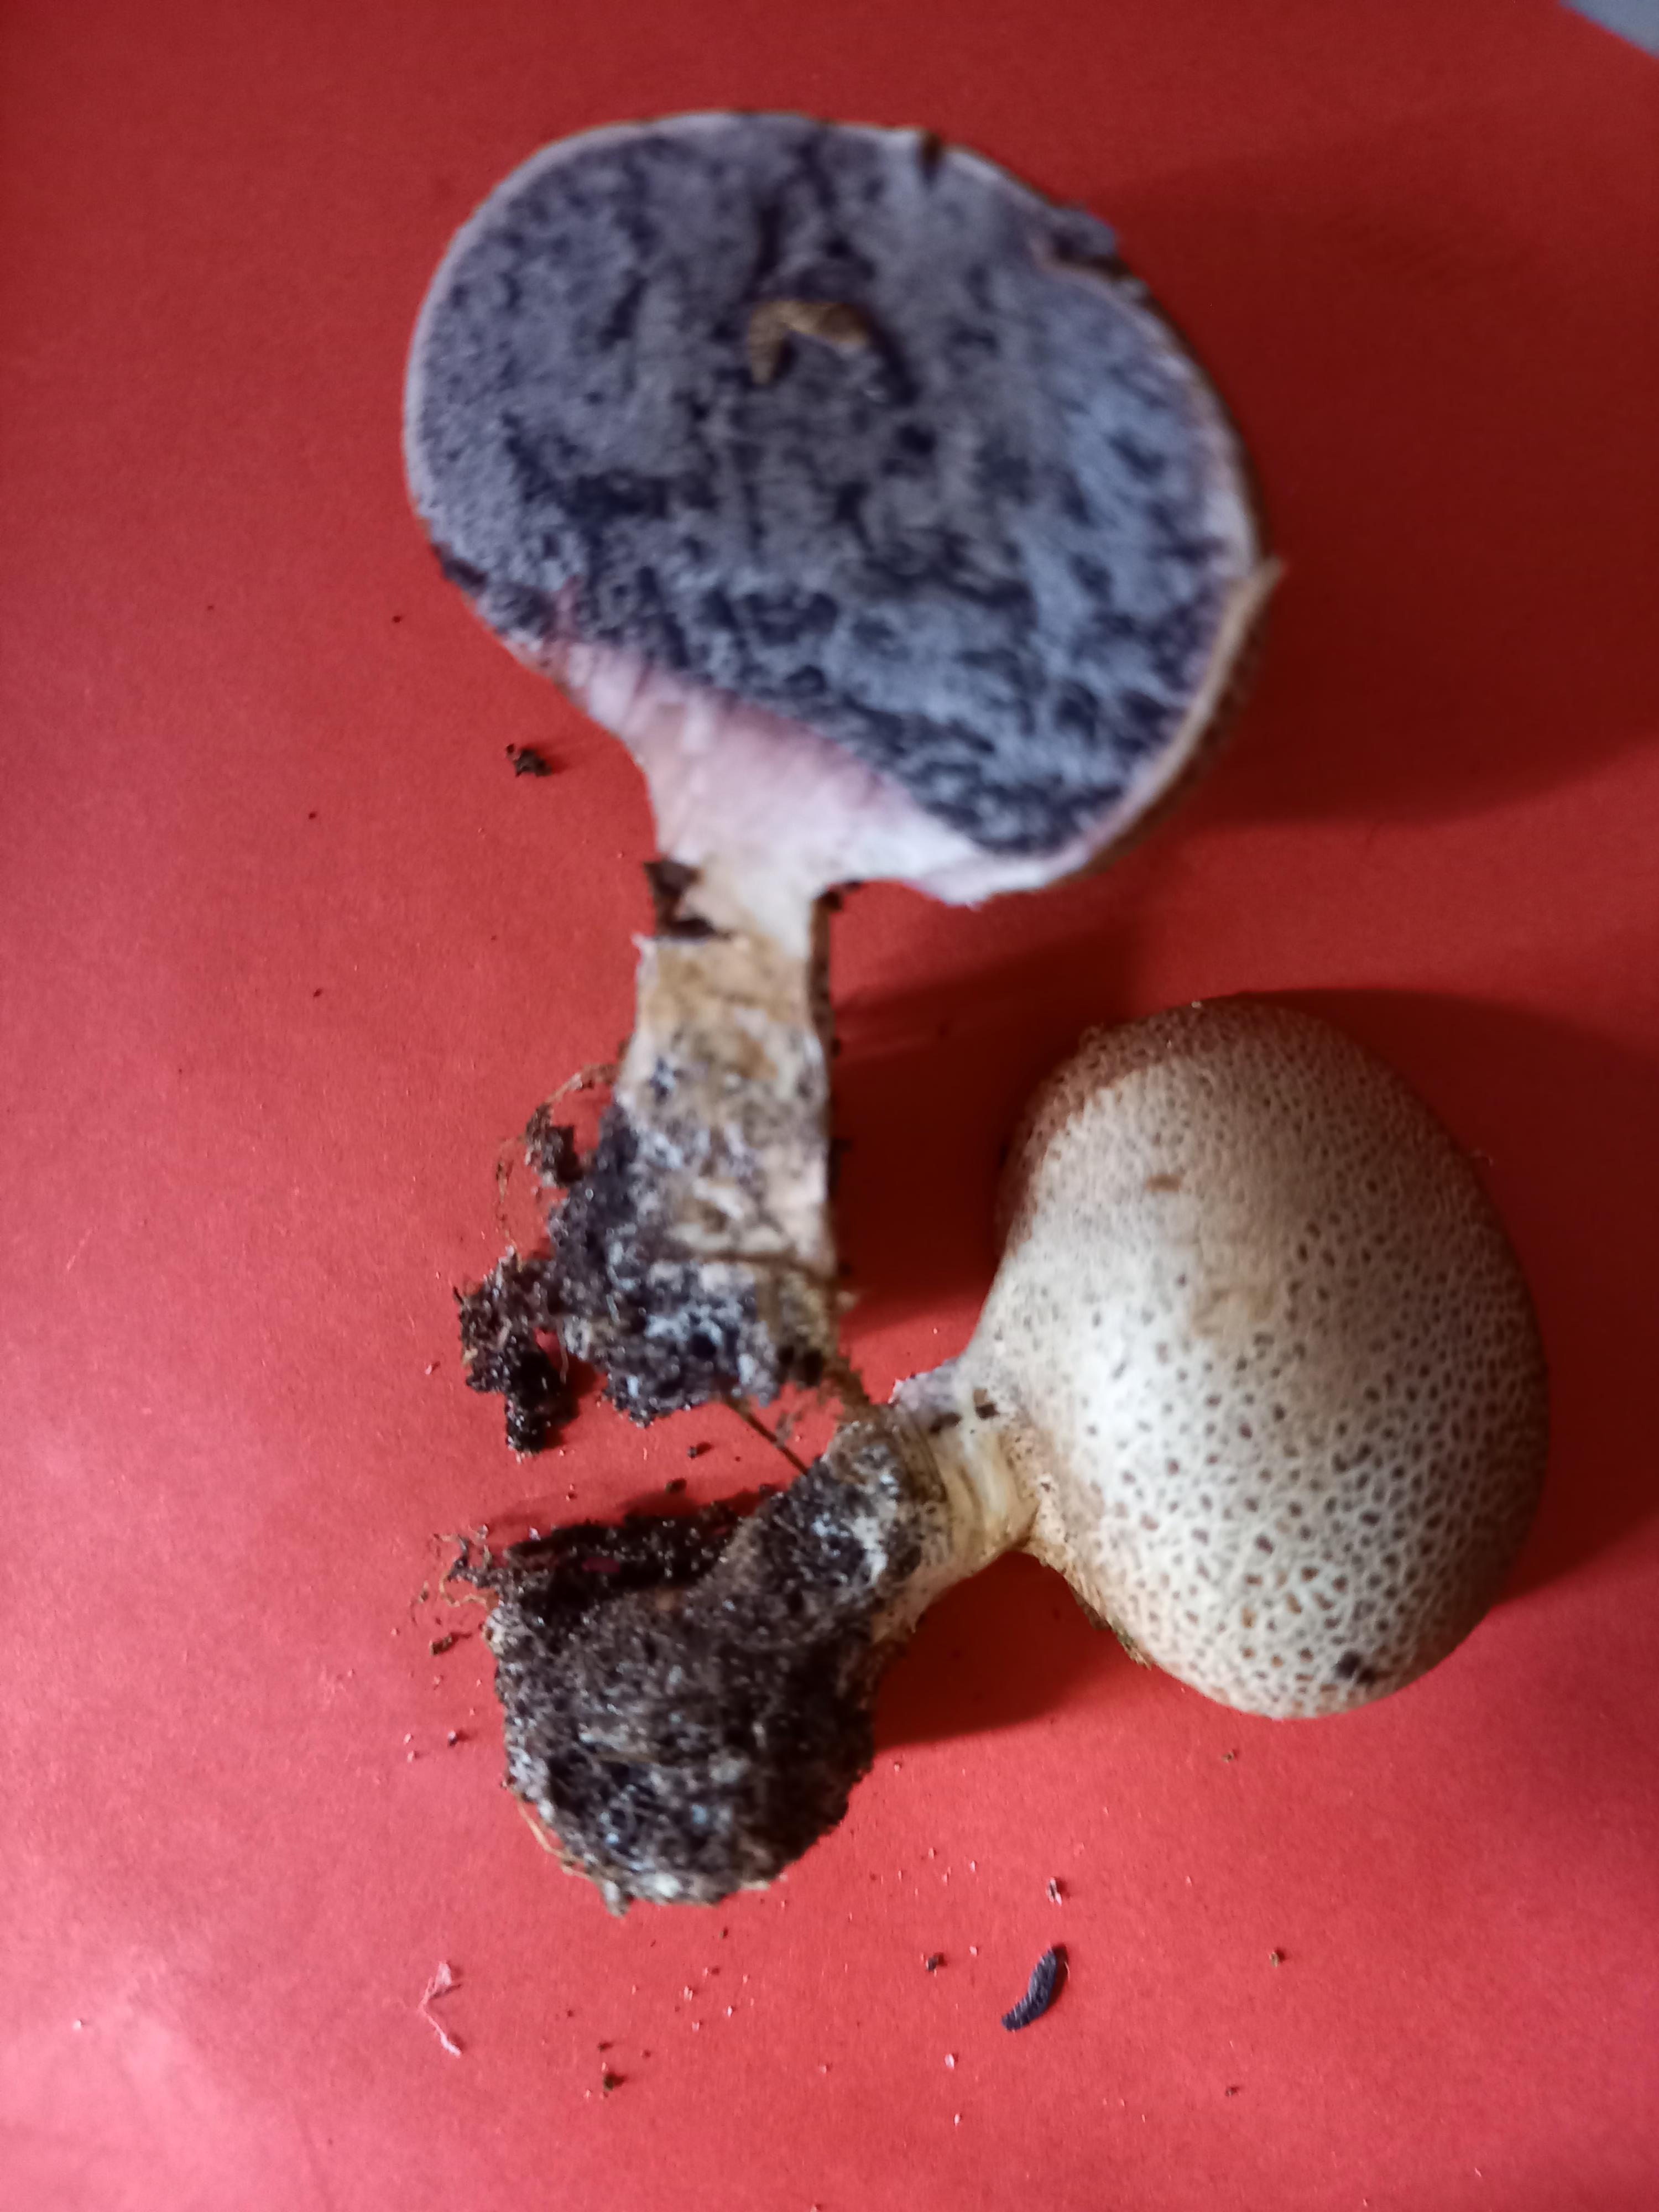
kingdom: Fungi
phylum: Basidiomycota
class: Agaricomycetes
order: Boletales
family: Sclerodermataceae
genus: Scleroderma
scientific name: Scleroderma verrucosum
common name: stilket bruskbold
